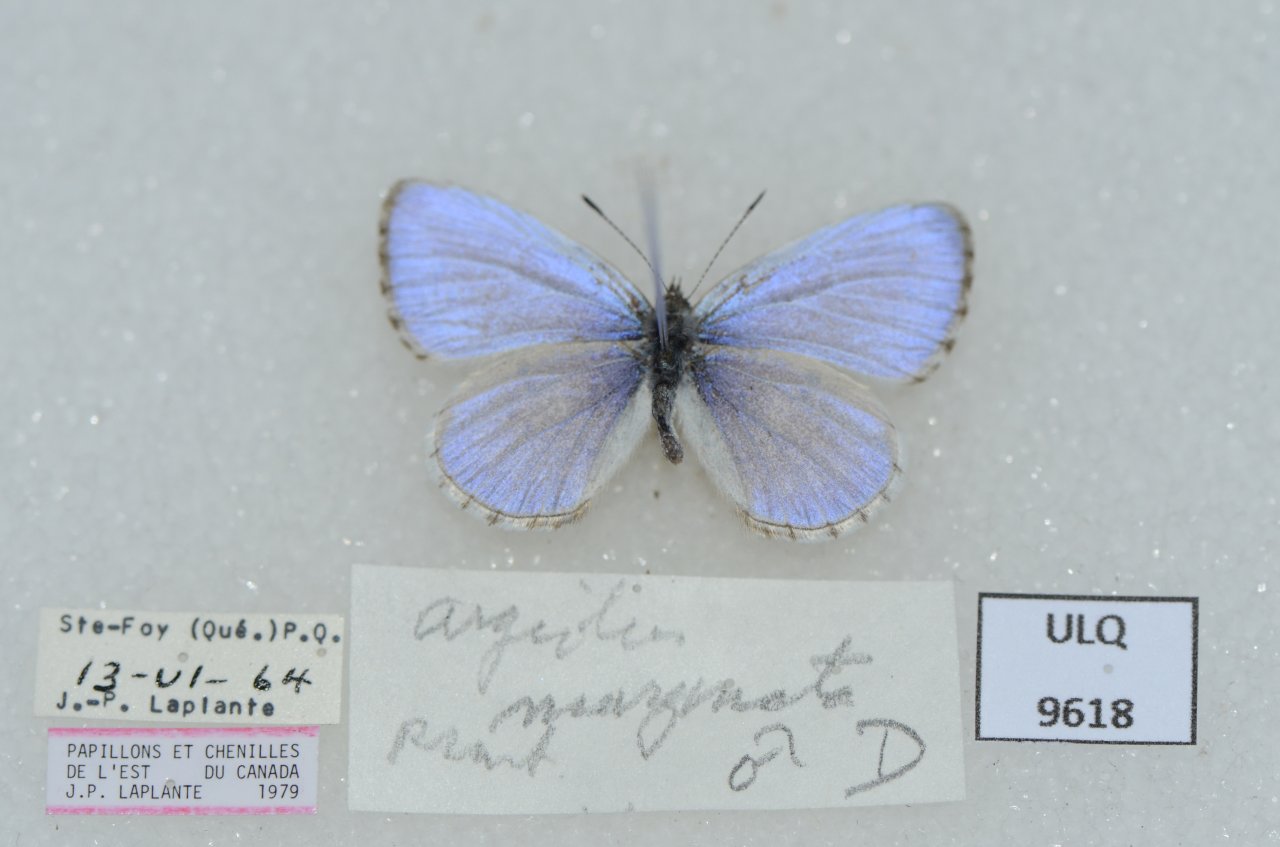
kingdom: Animalia
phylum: Arthropoda
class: Insecta
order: Lepidoptera
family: Lycaenidae
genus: Celastrina
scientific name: Celastrina lucia
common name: Northern Spring Azure
